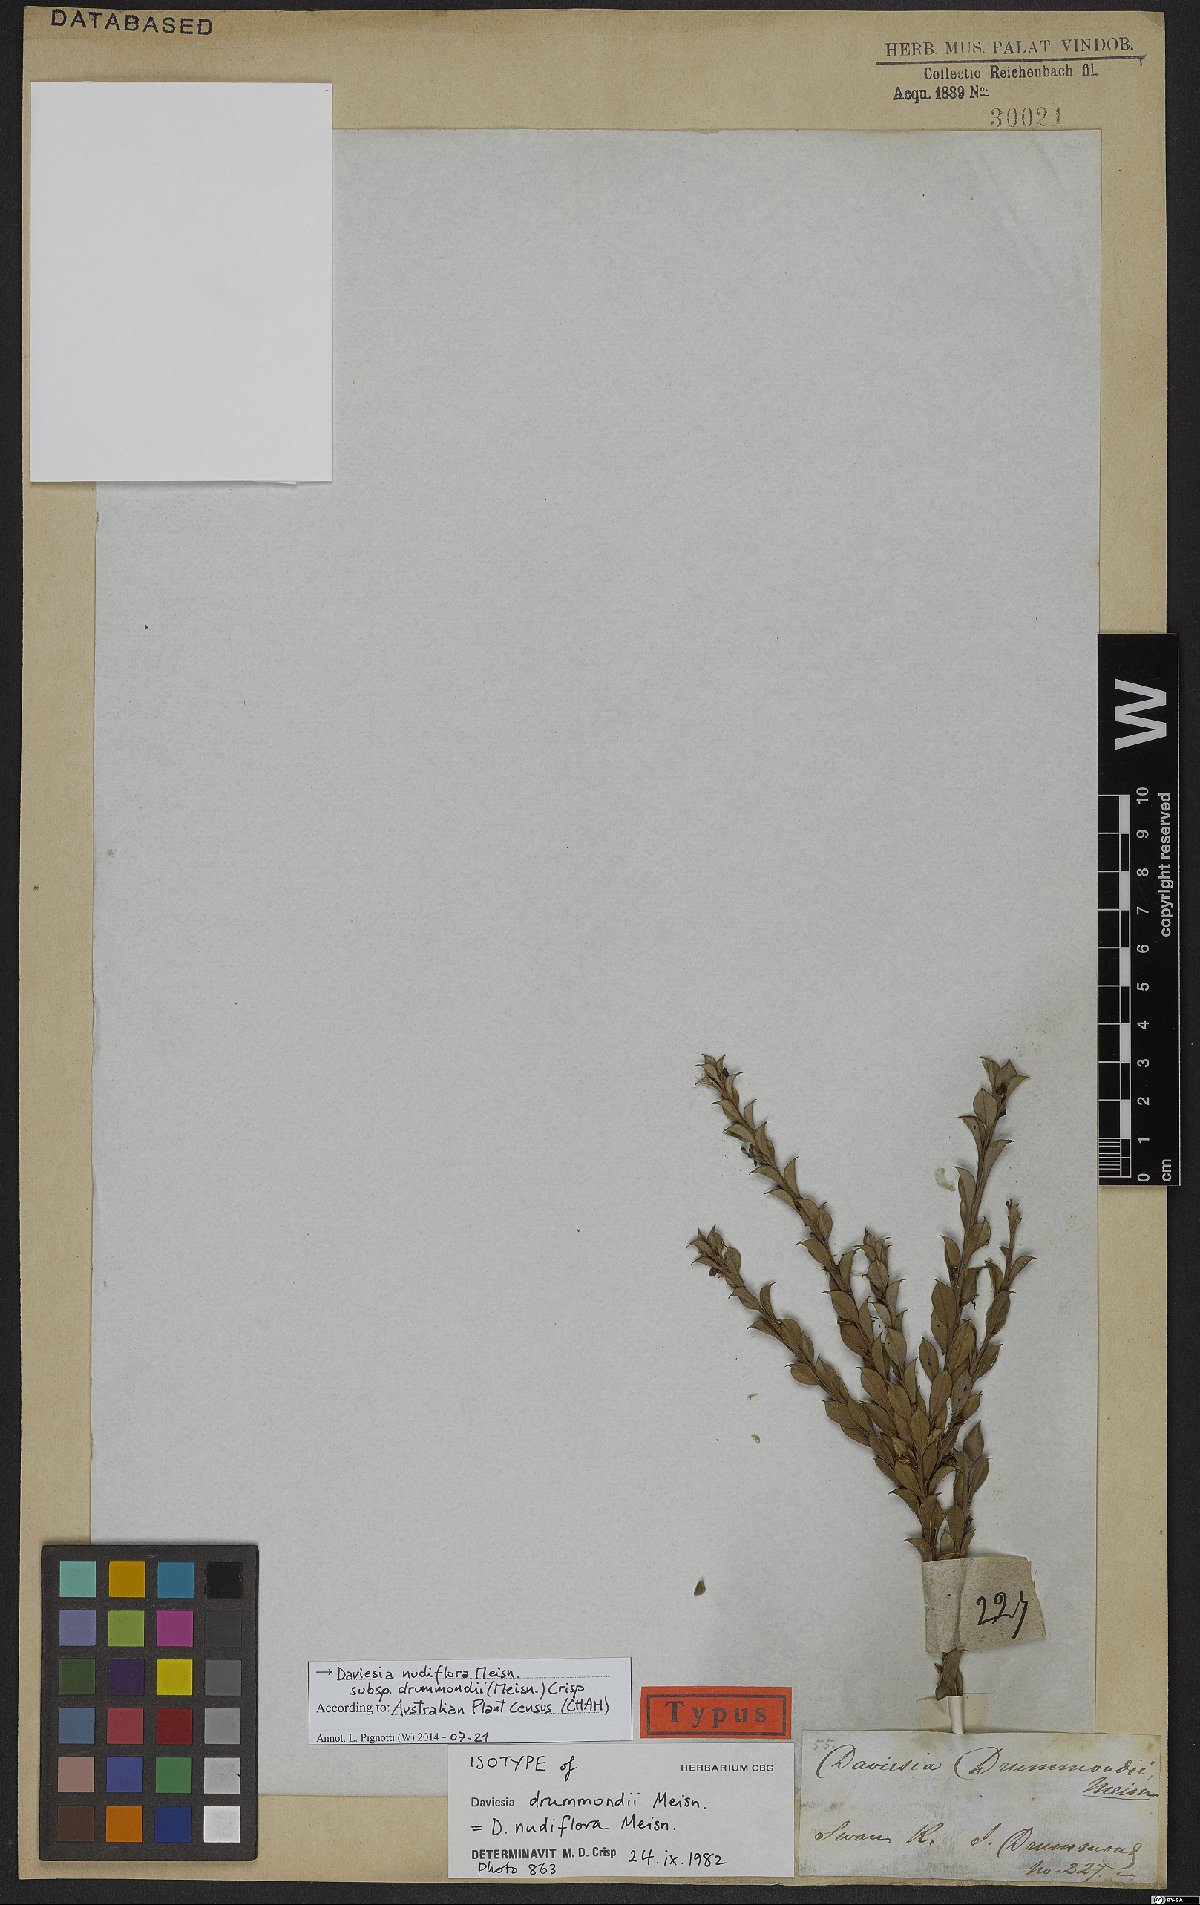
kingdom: Plantae
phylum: Tracheophyta
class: Magnoliopsida
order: Fabales
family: Fabaceae
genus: Daviesia
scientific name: Daviesia nudiflora
